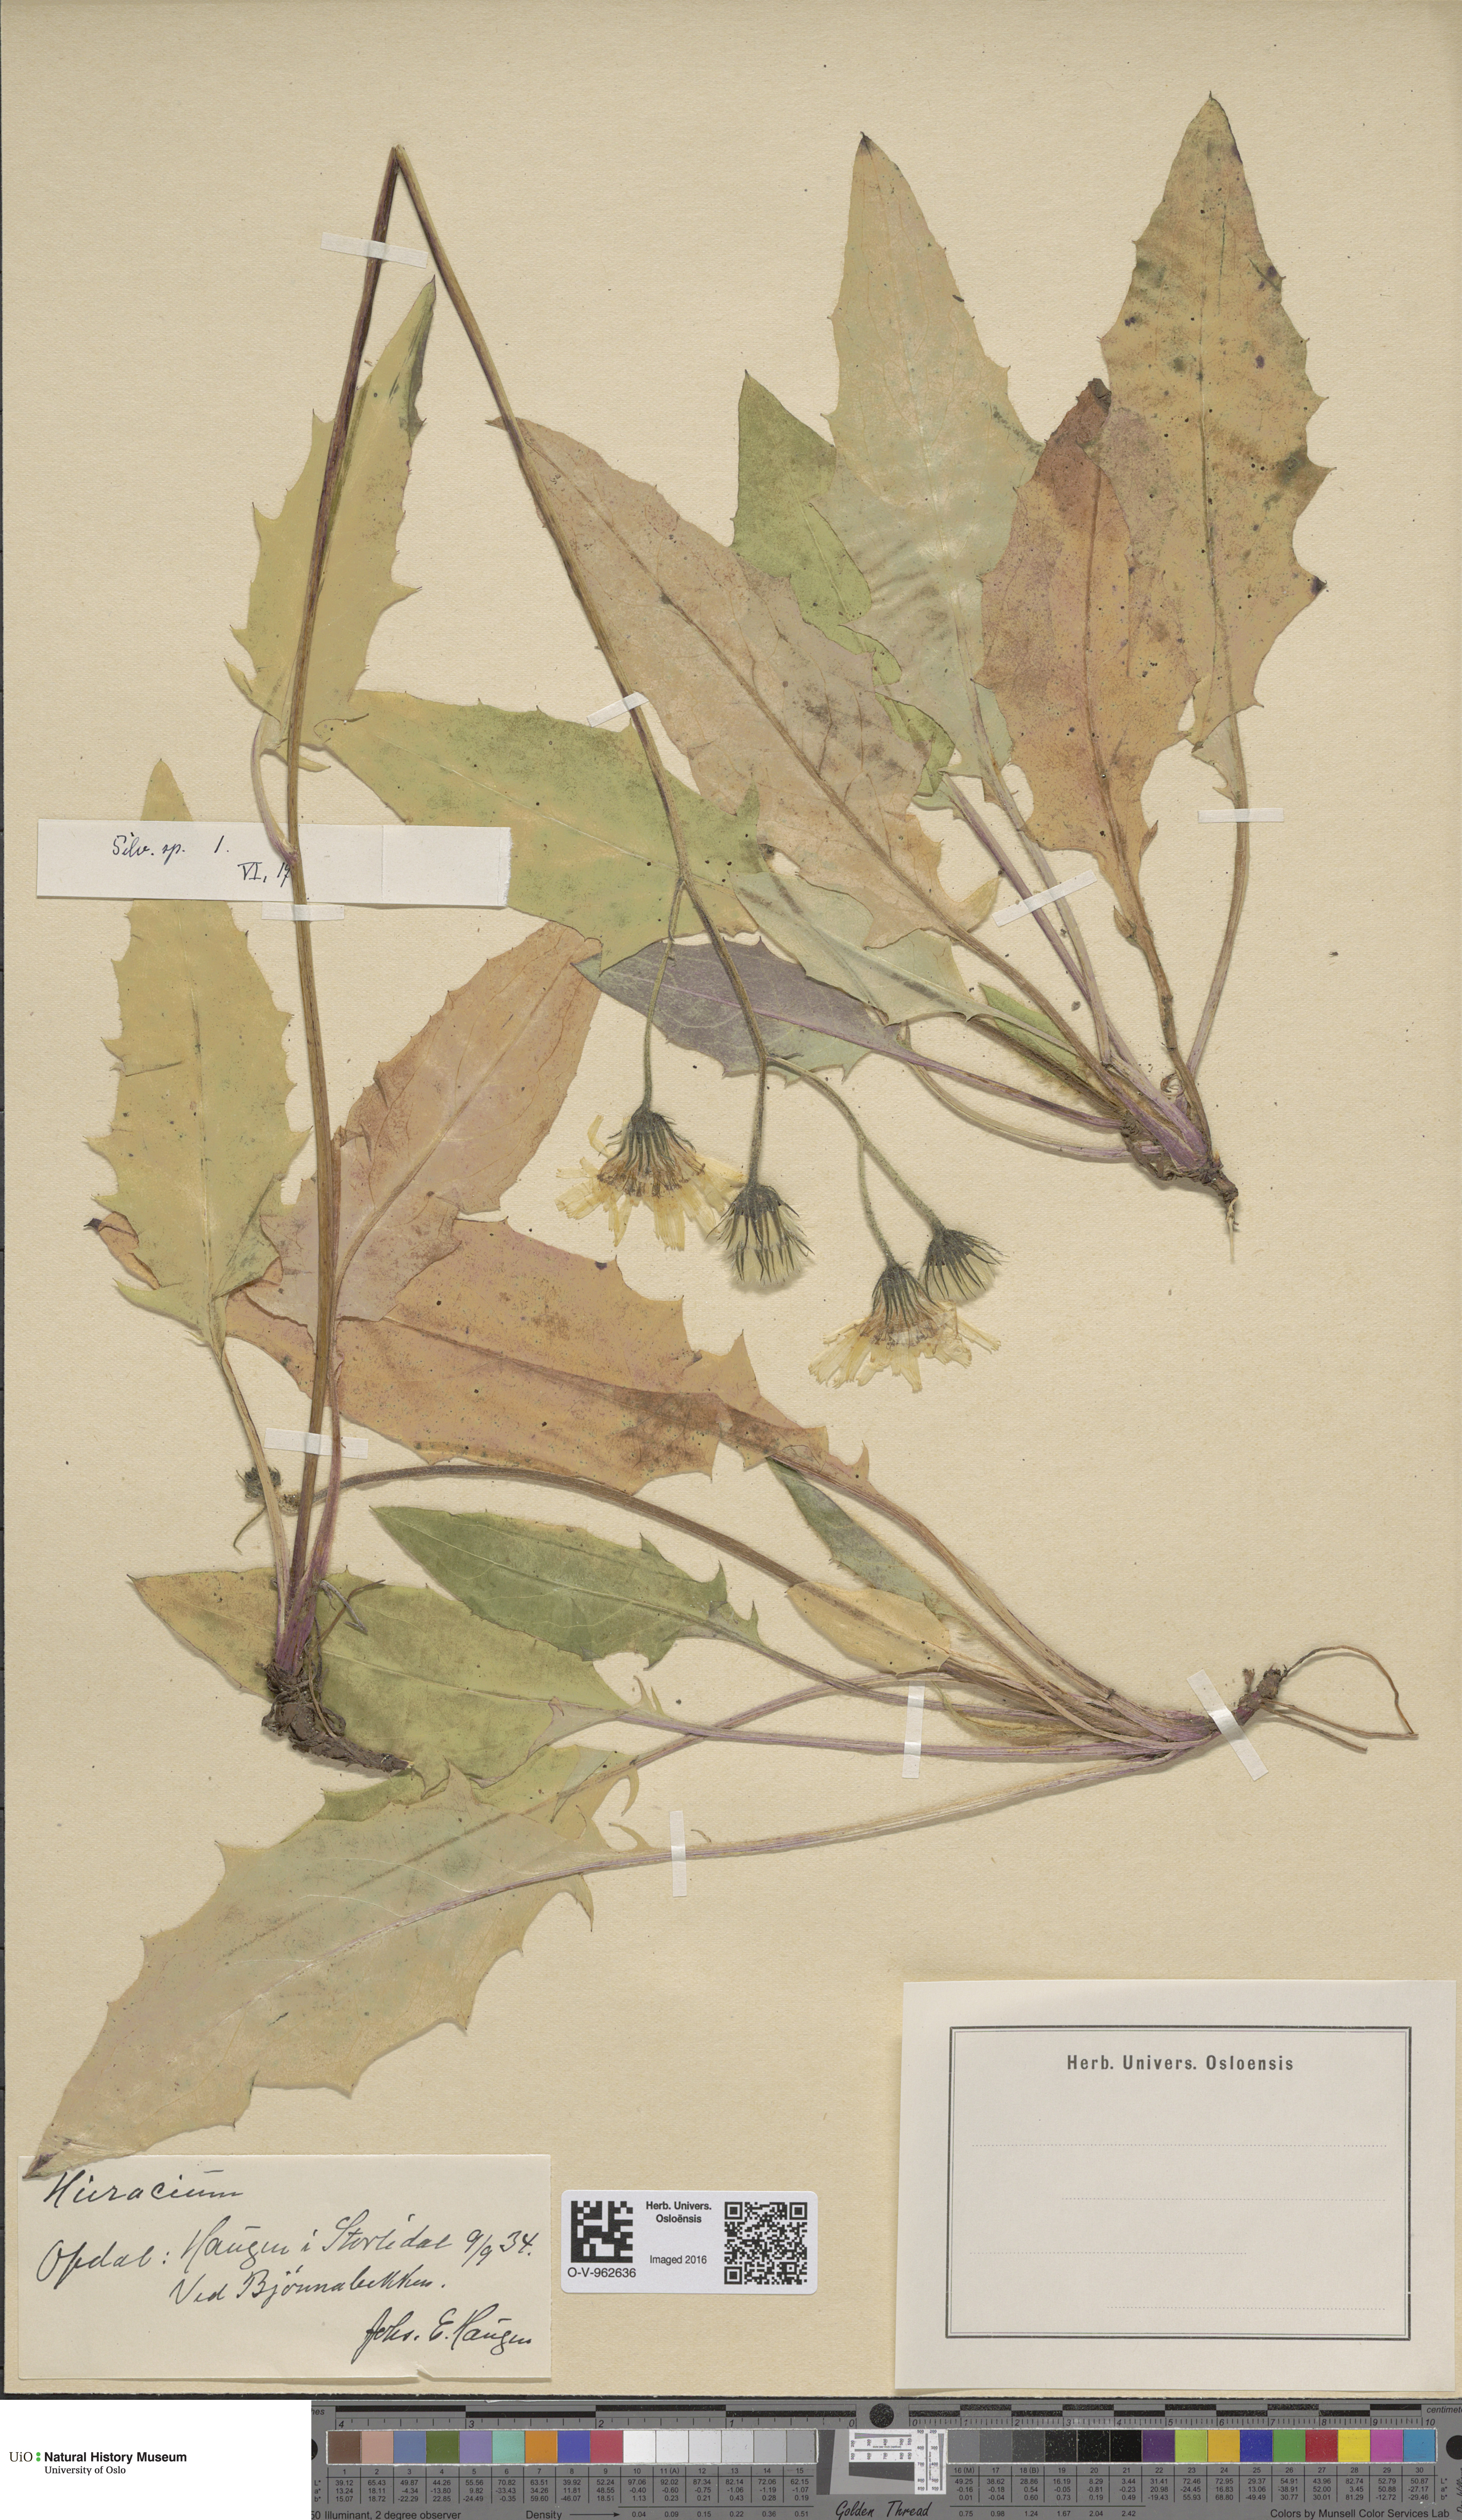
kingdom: Plantae
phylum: Tracheophyta
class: Magnoliopsida
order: Asterales
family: Asteraceae
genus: Hieracium
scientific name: Hieracium
